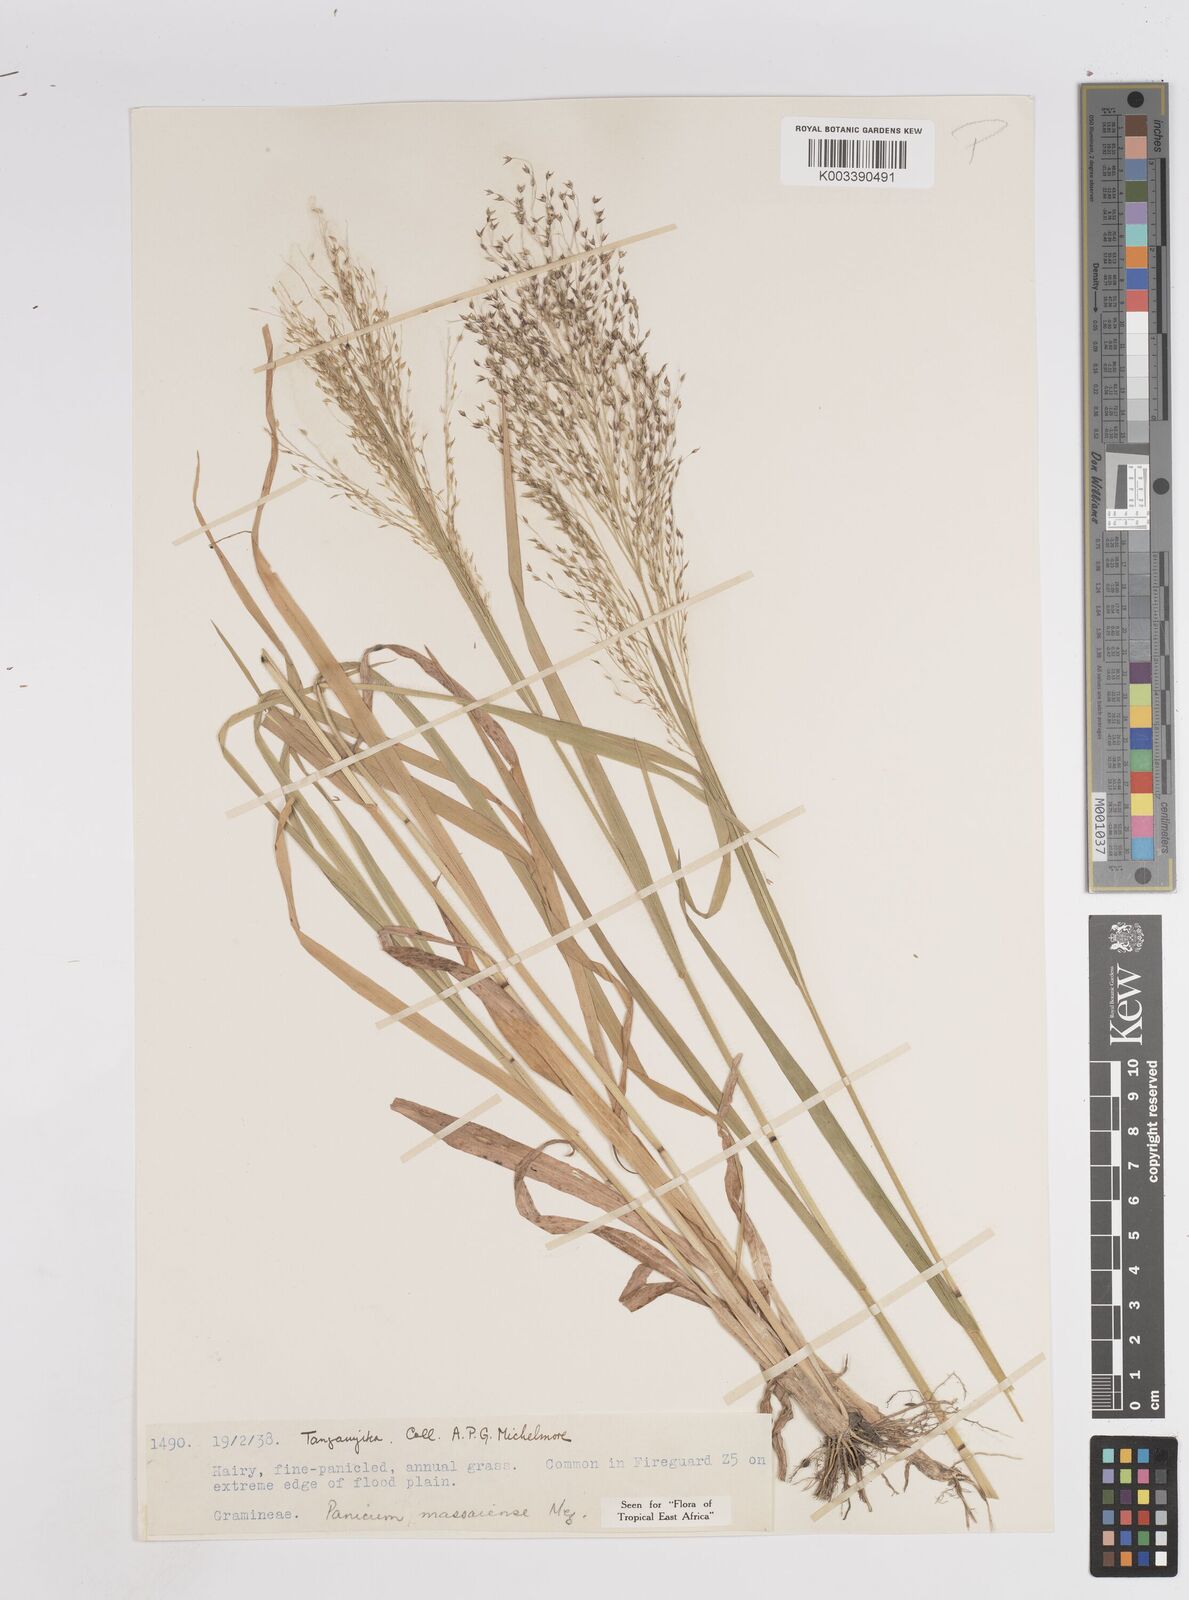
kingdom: Plantae
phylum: Tracheophyta
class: Liliopsida
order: Poales
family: Poaceae
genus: Panicum
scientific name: Panicum massaiense
